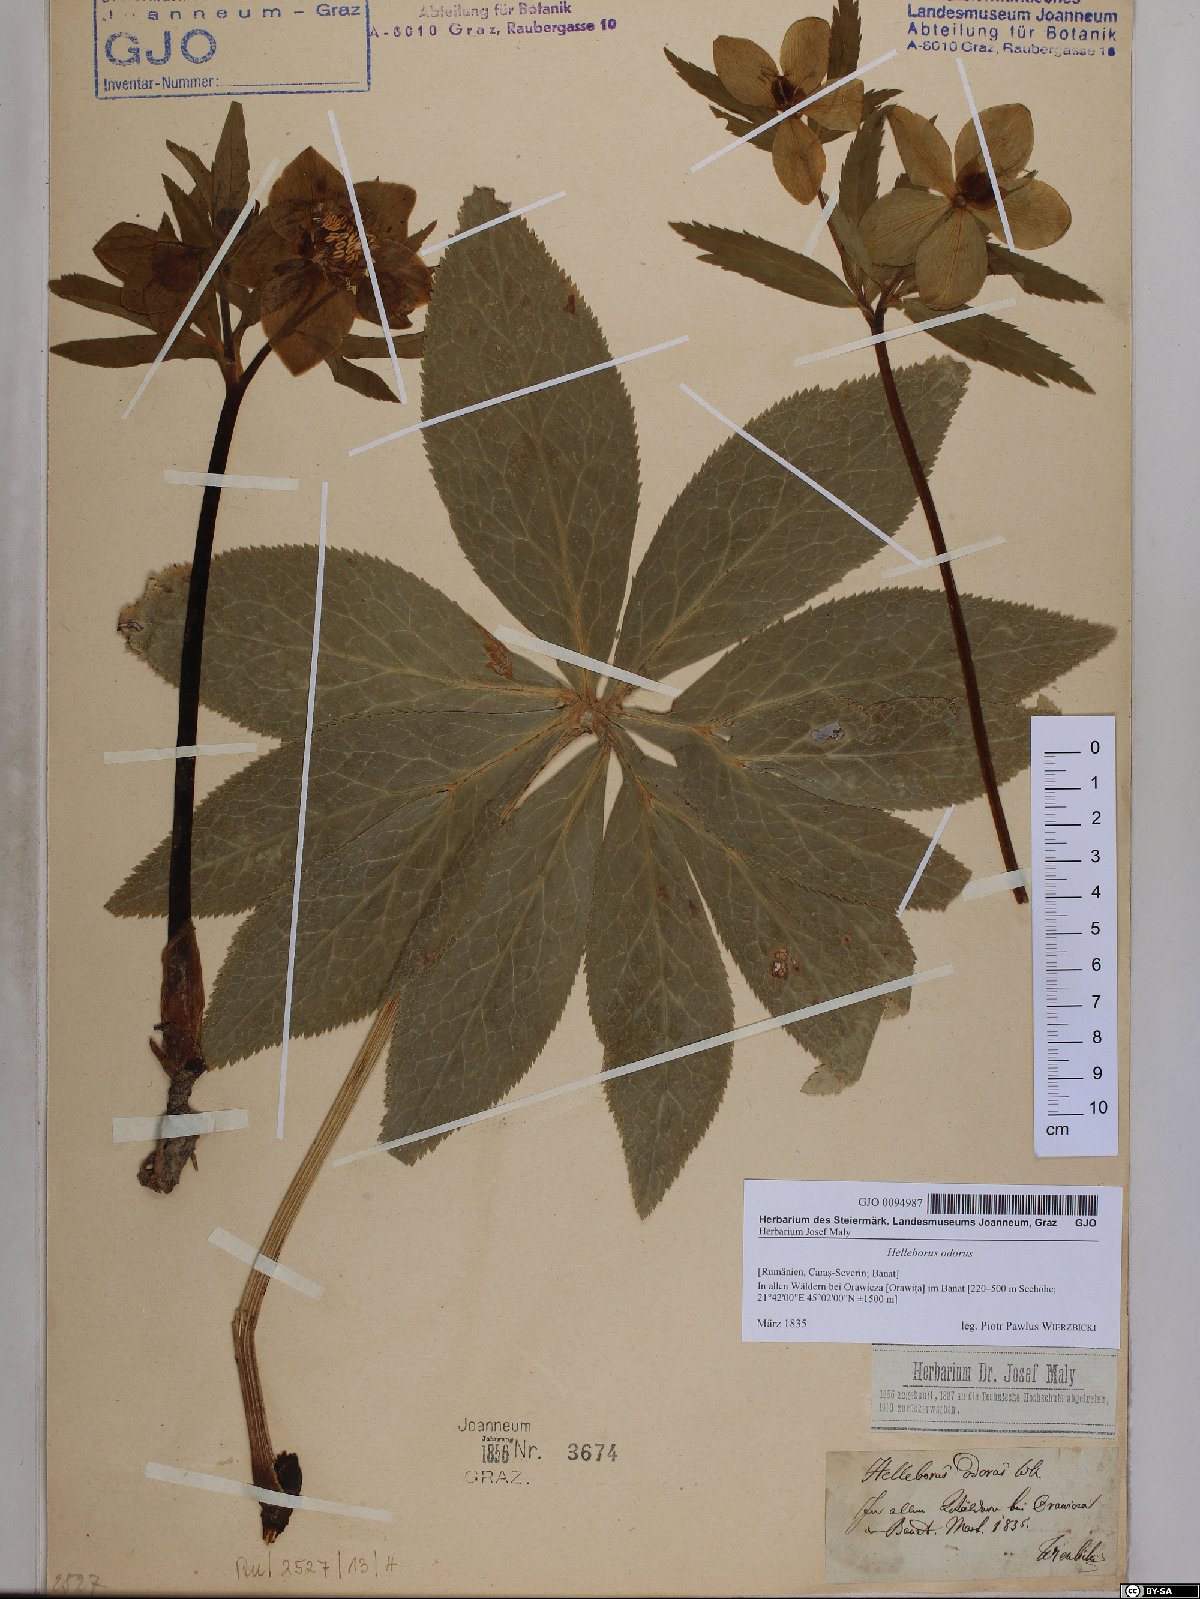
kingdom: Plantae
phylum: Tracheophyta
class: Magnoliopsida
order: Ranunculales
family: Ranunculaceae
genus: Helleborus
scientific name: Helleborus odorus
